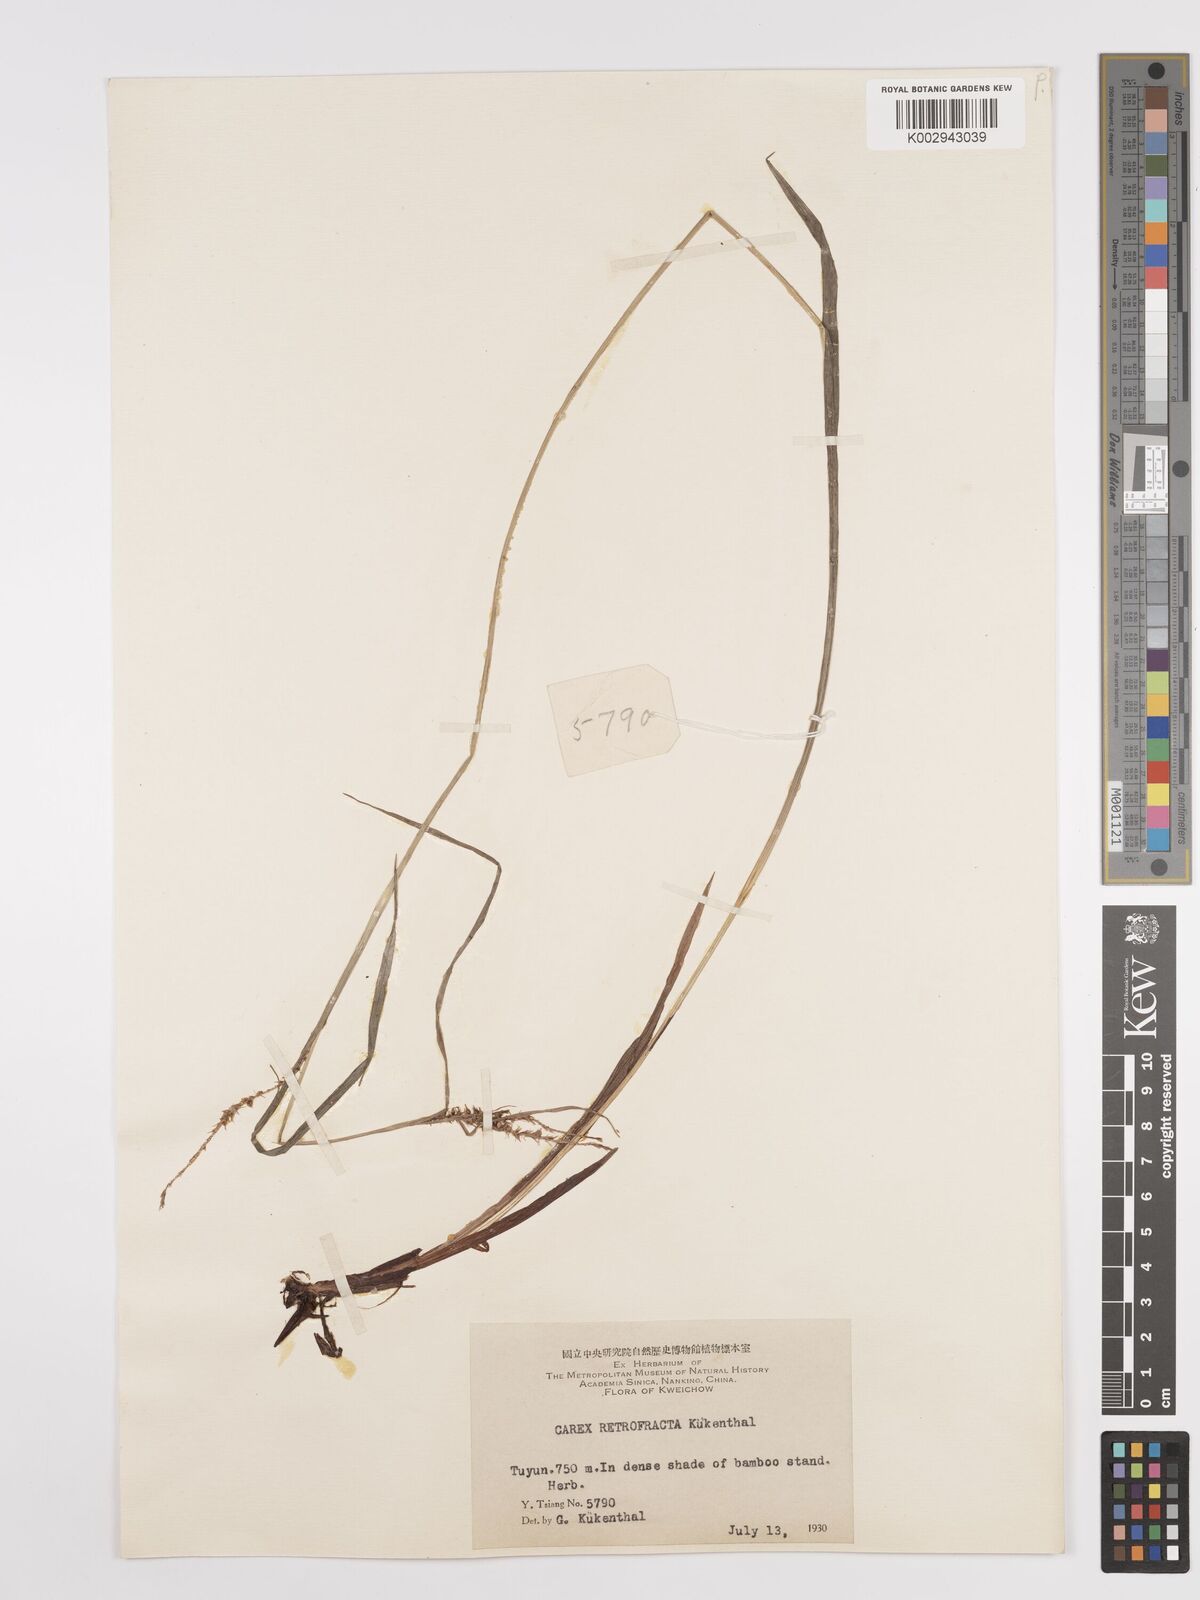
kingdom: Plantae
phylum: Tracheophyta
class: Liliopsida
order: Poales
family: Cyperaceae
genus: Carex
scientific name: Carex retrofracta
